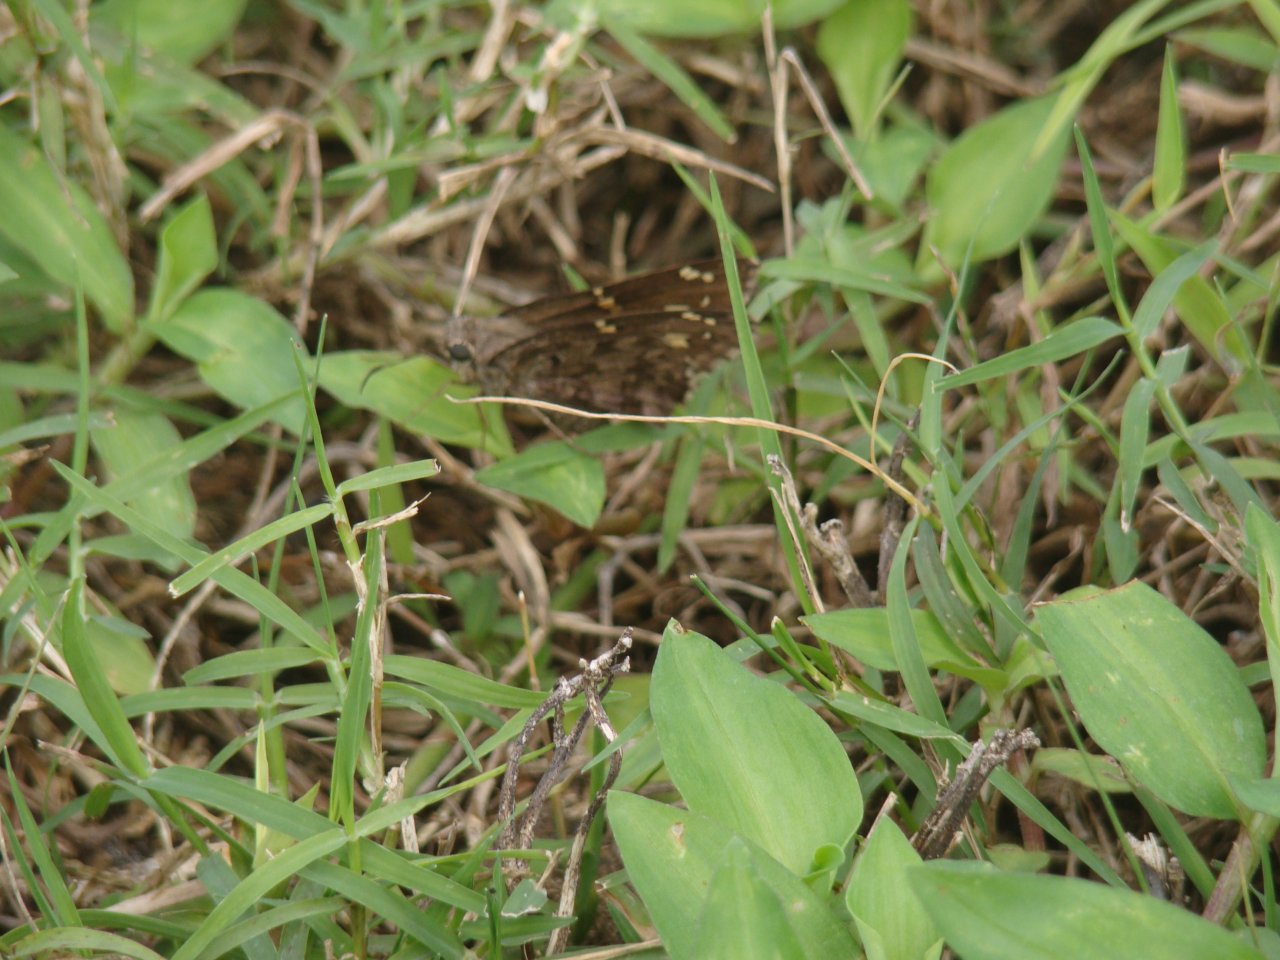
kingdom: Animalia
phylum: Arthropoda
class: Insecta
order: Lepidoptera
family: Hesperiidae
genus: Urbanus
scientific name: Urbanus dorantes
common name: Dorantes Longtail
